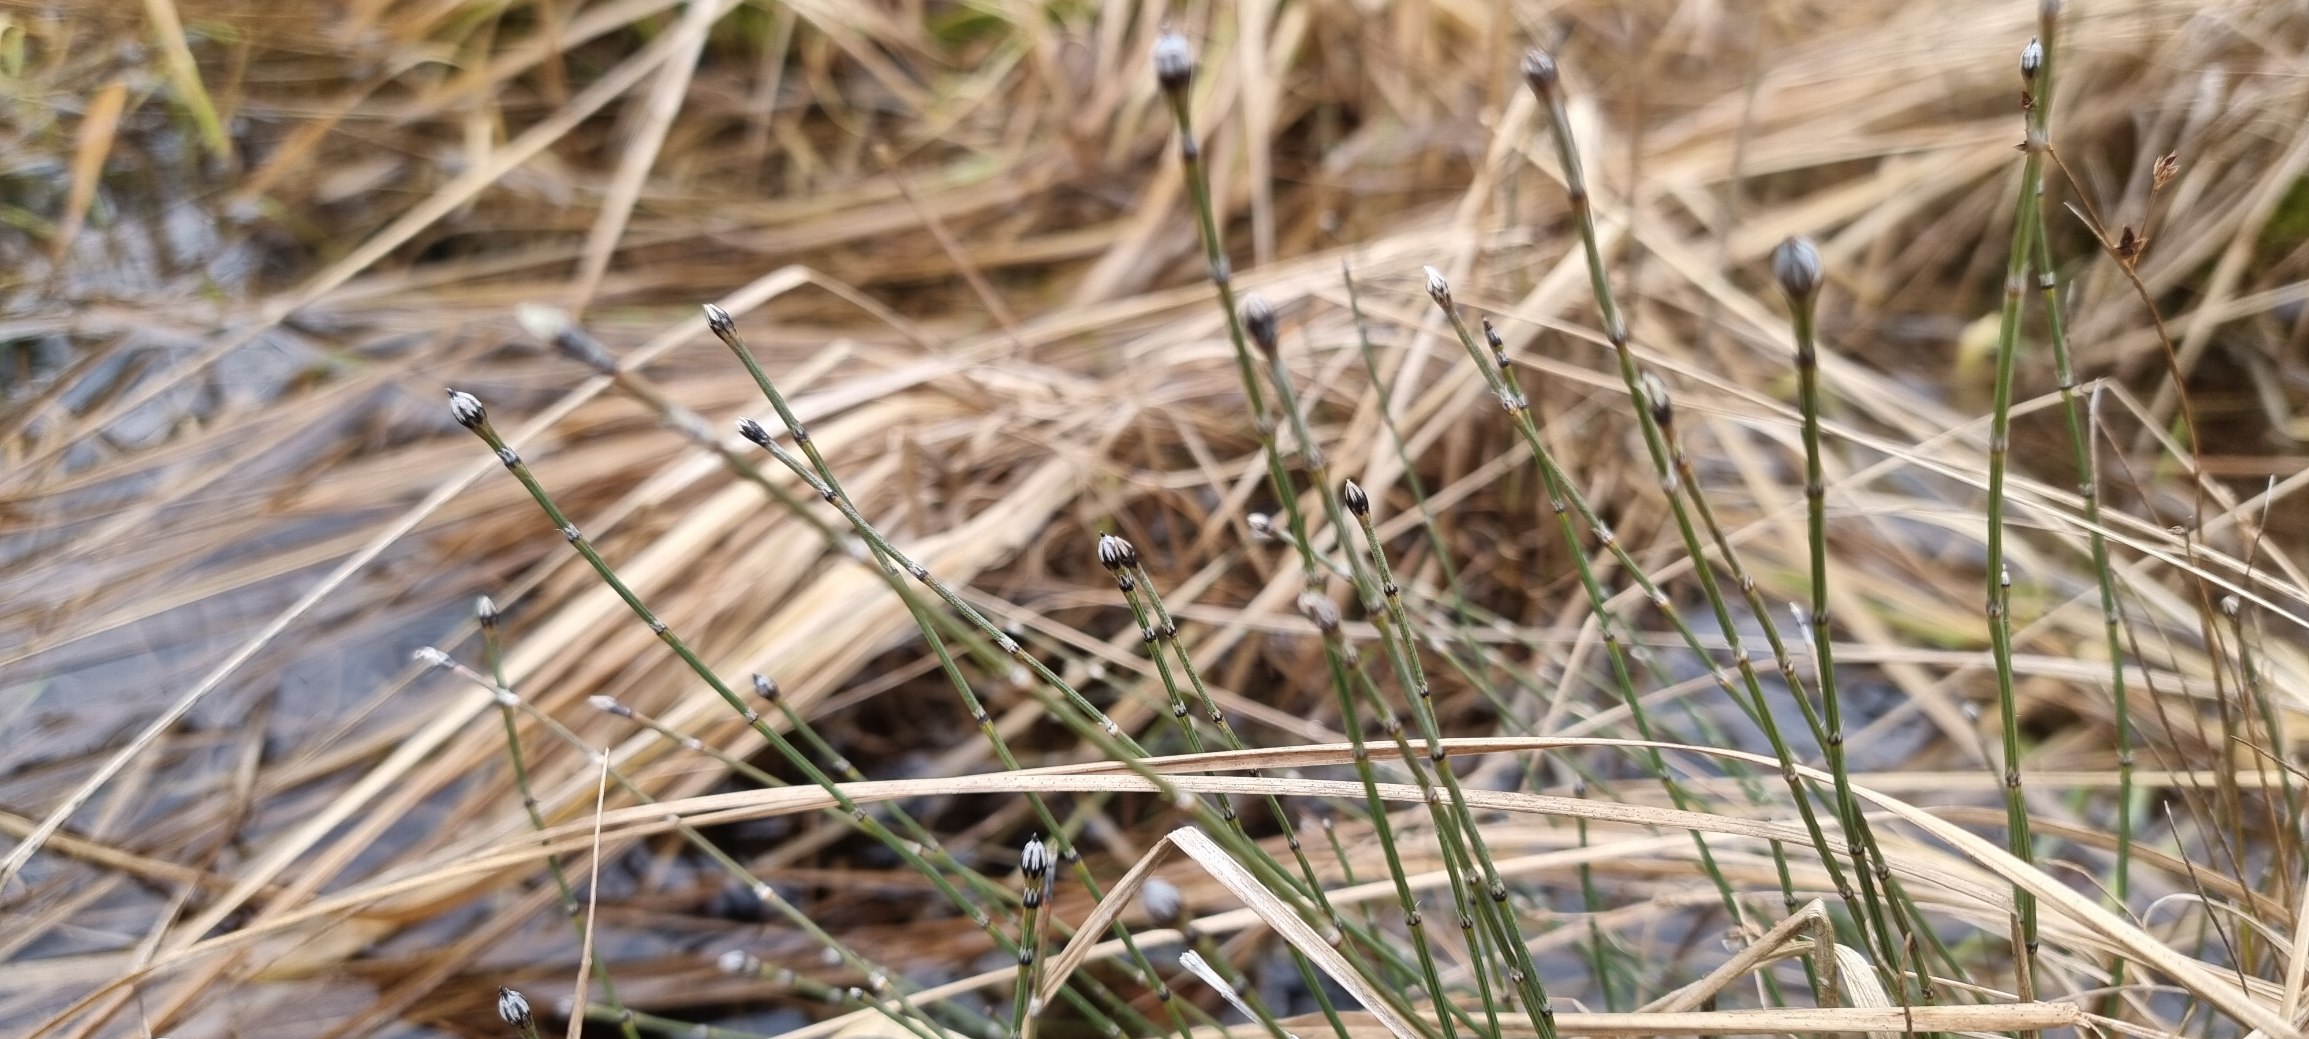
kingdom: Plantae
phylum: Tracheophyta
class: Polypodiopsida
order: Equisetales
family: Equisetaceae
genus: Equisetum
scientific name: Equisetum variegatum
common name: Liden padderok
